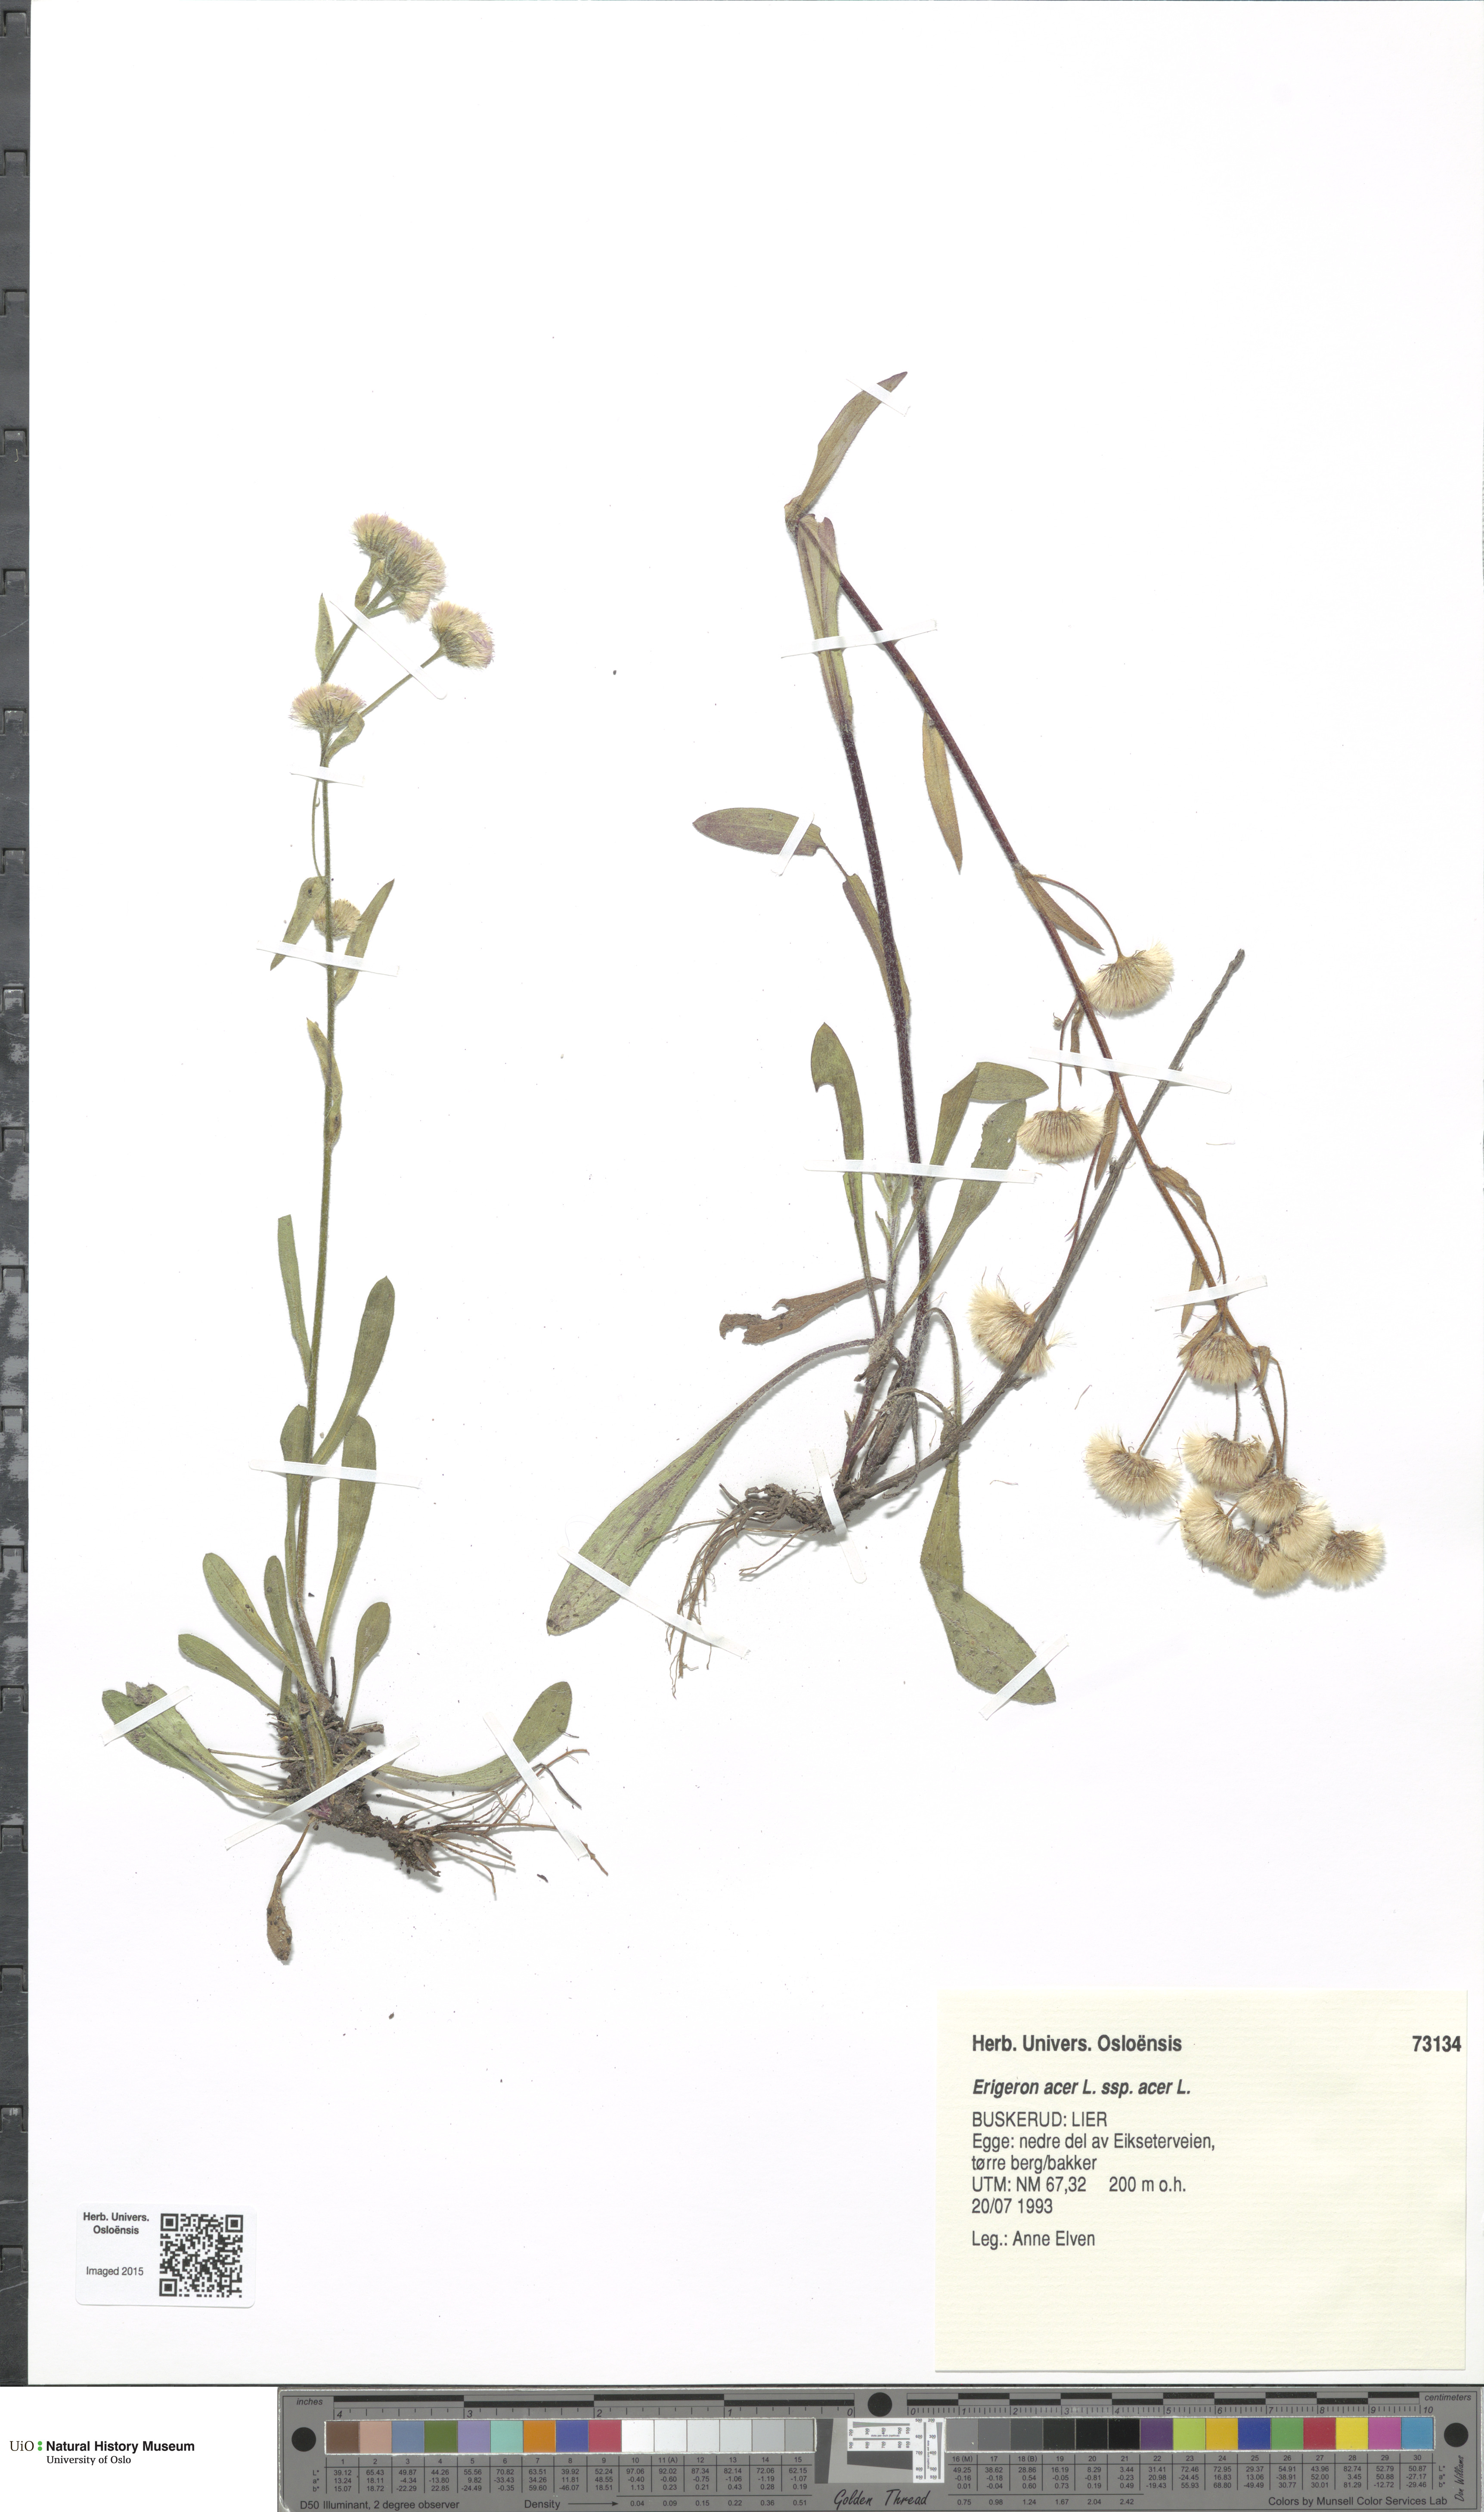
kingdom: Plantae
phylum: Tracheophyta
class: Magnoliopsida
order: Asterales
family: Asteraceae
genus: Erigeron
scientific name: Erigeron acris
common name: Blue fleabane
